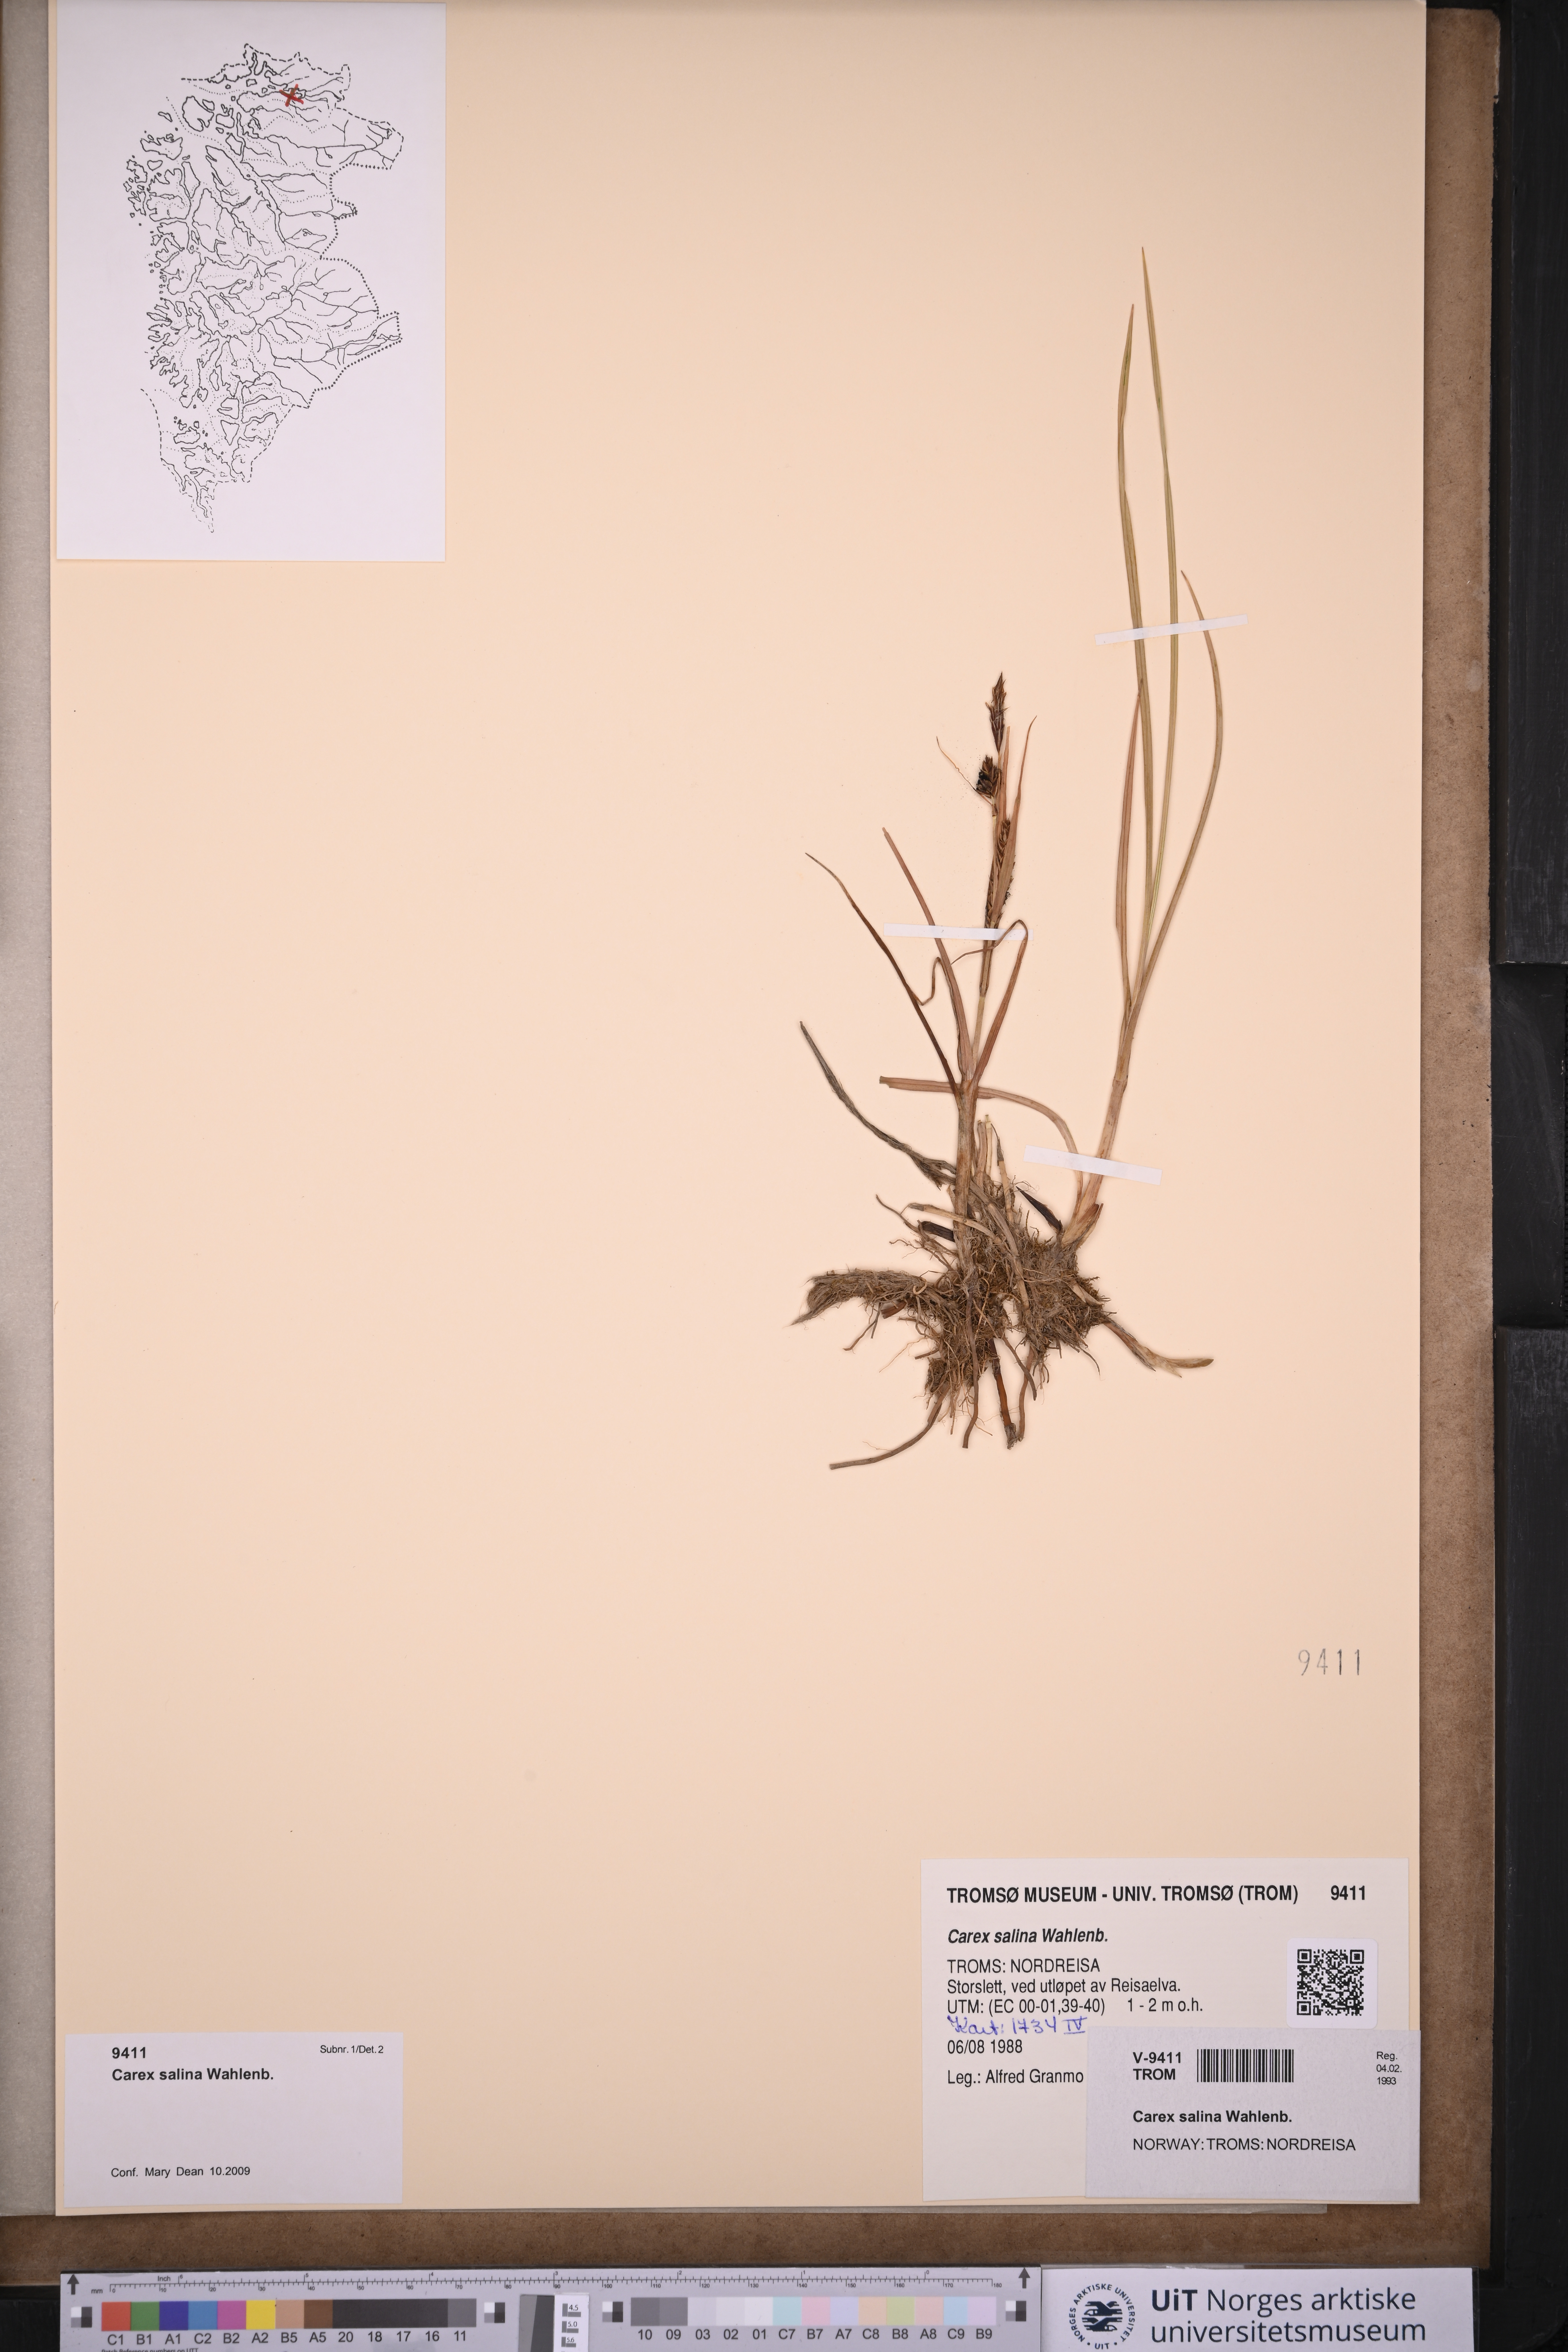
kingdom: Plantae
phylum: Tracheophyta
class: Liliopsida
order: Poales
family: Cyperaceae
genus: Carex
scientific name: Carex salina
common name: Saltmarsh sedge
